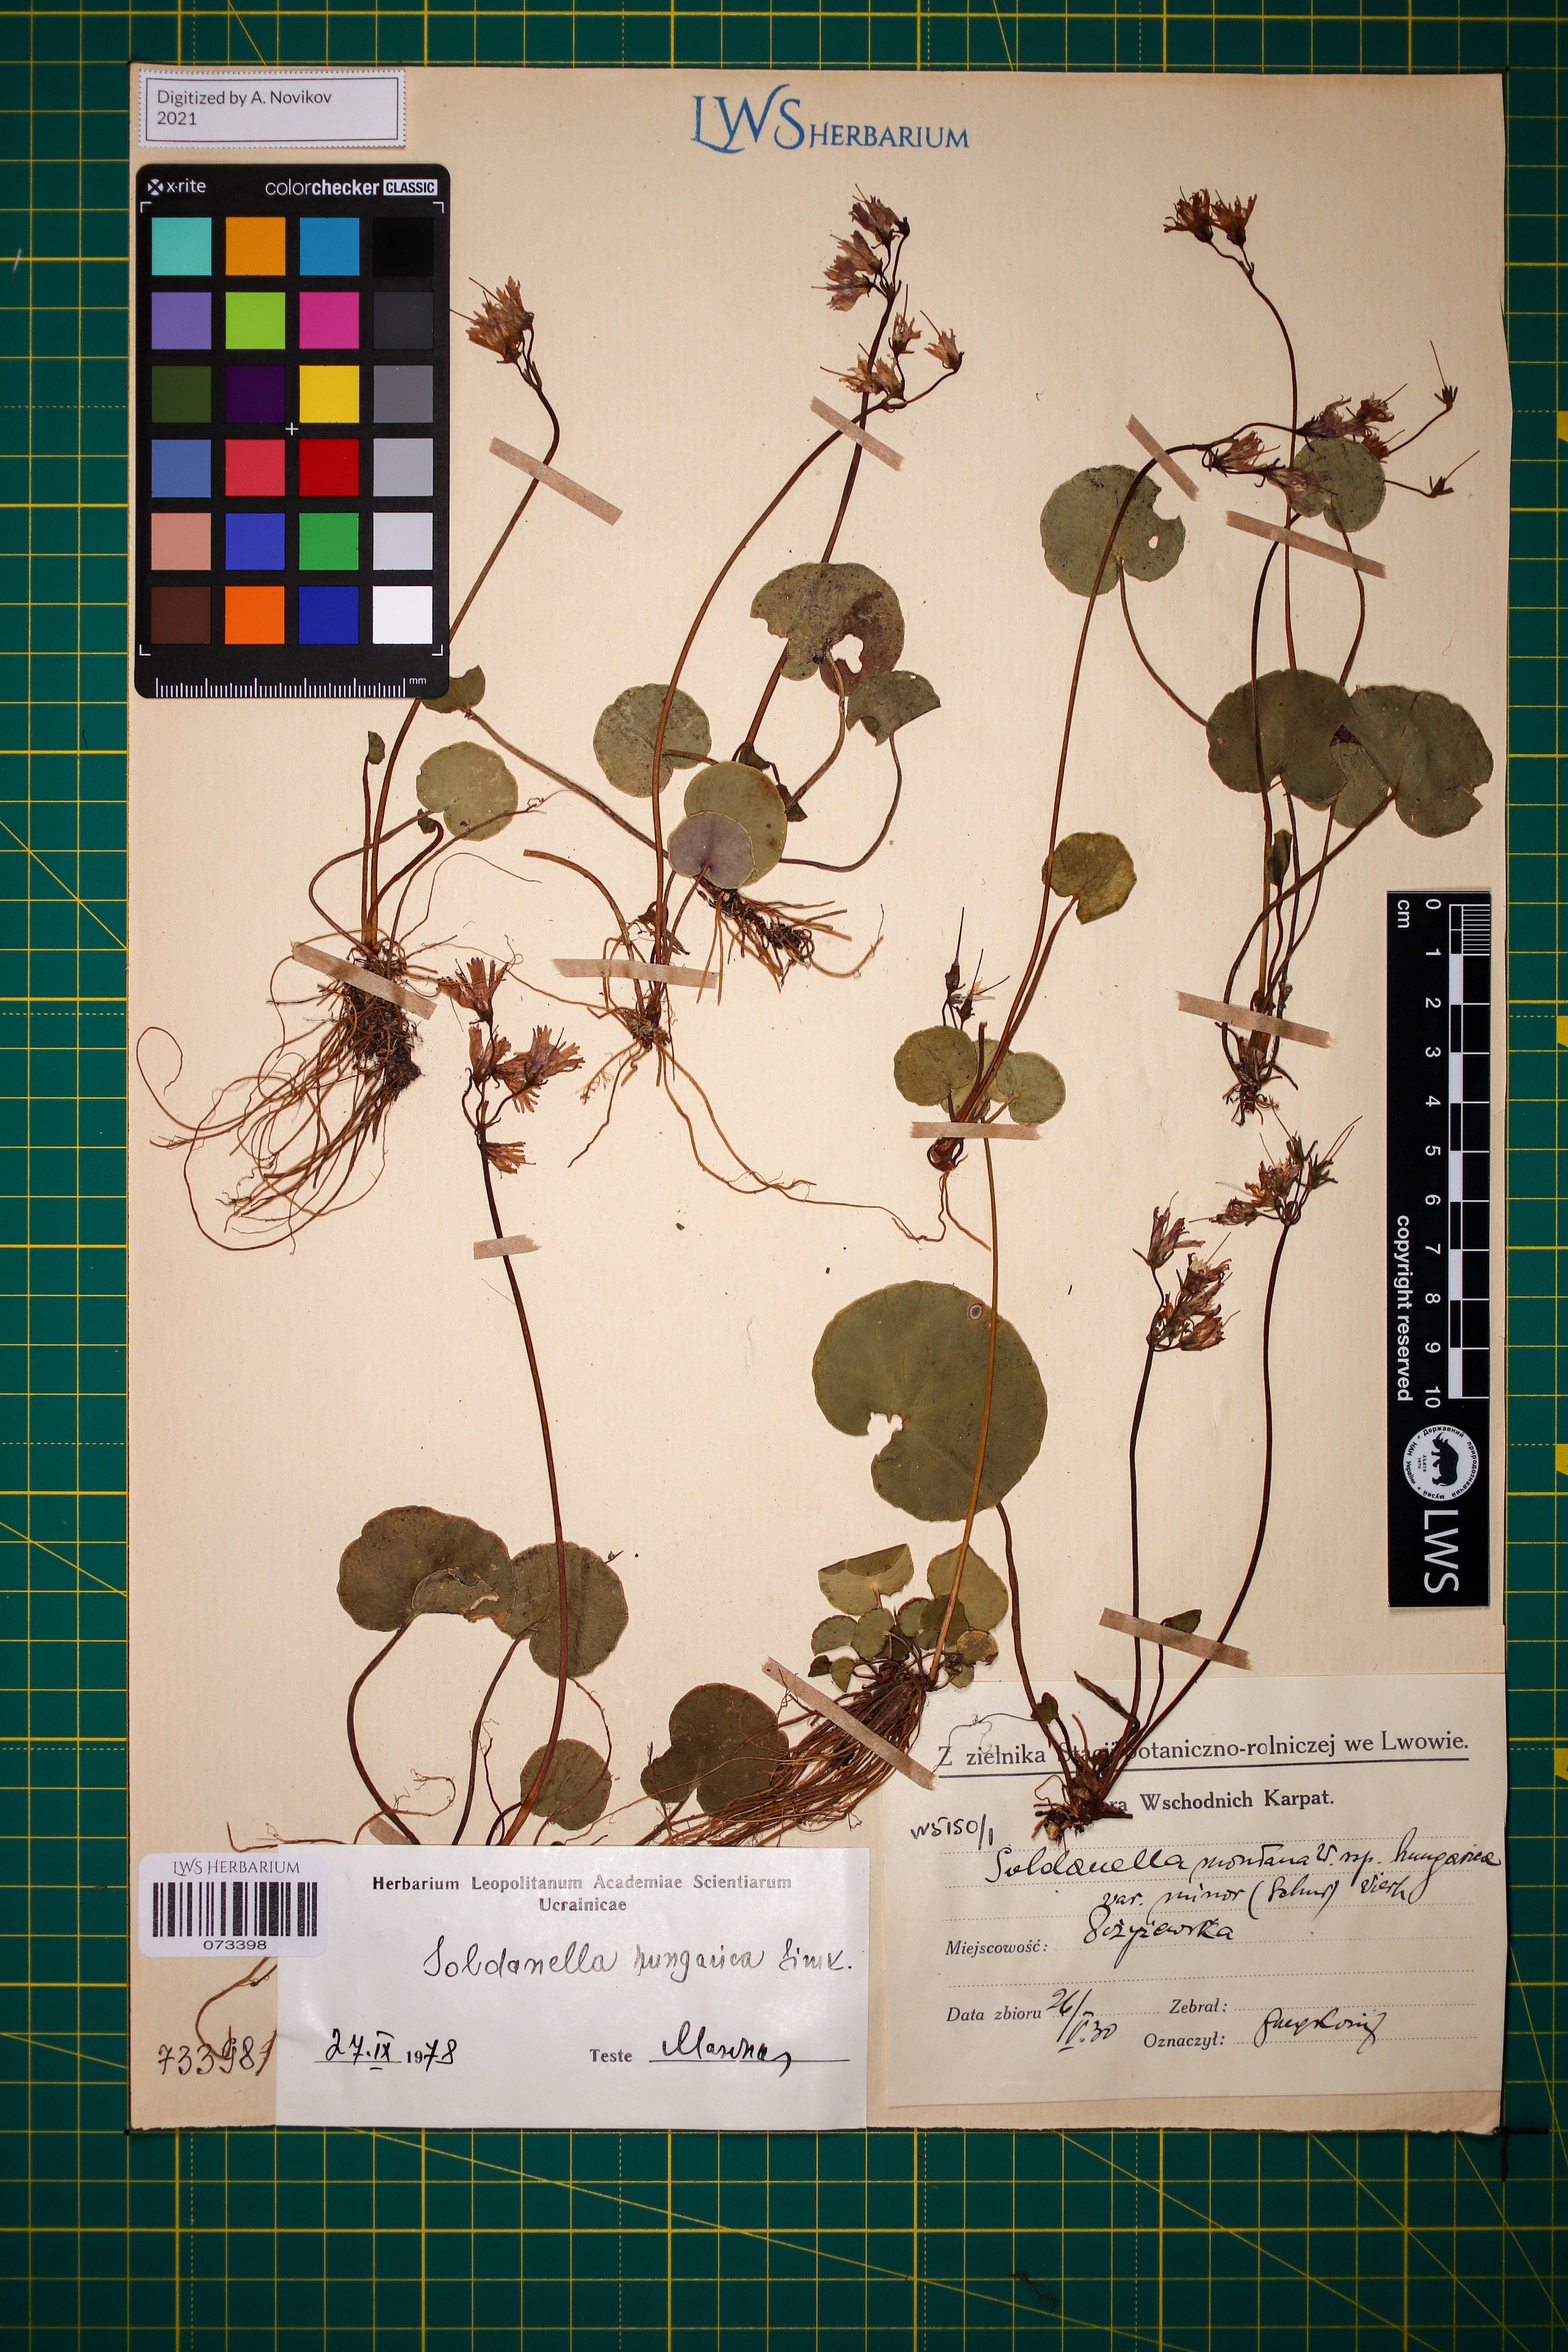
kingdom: Plantae
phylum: Tracheophyta
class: Magnoliopsida
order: Ericales
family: Primulaceae
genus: Soldanella
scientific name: Soldanella hungarica
